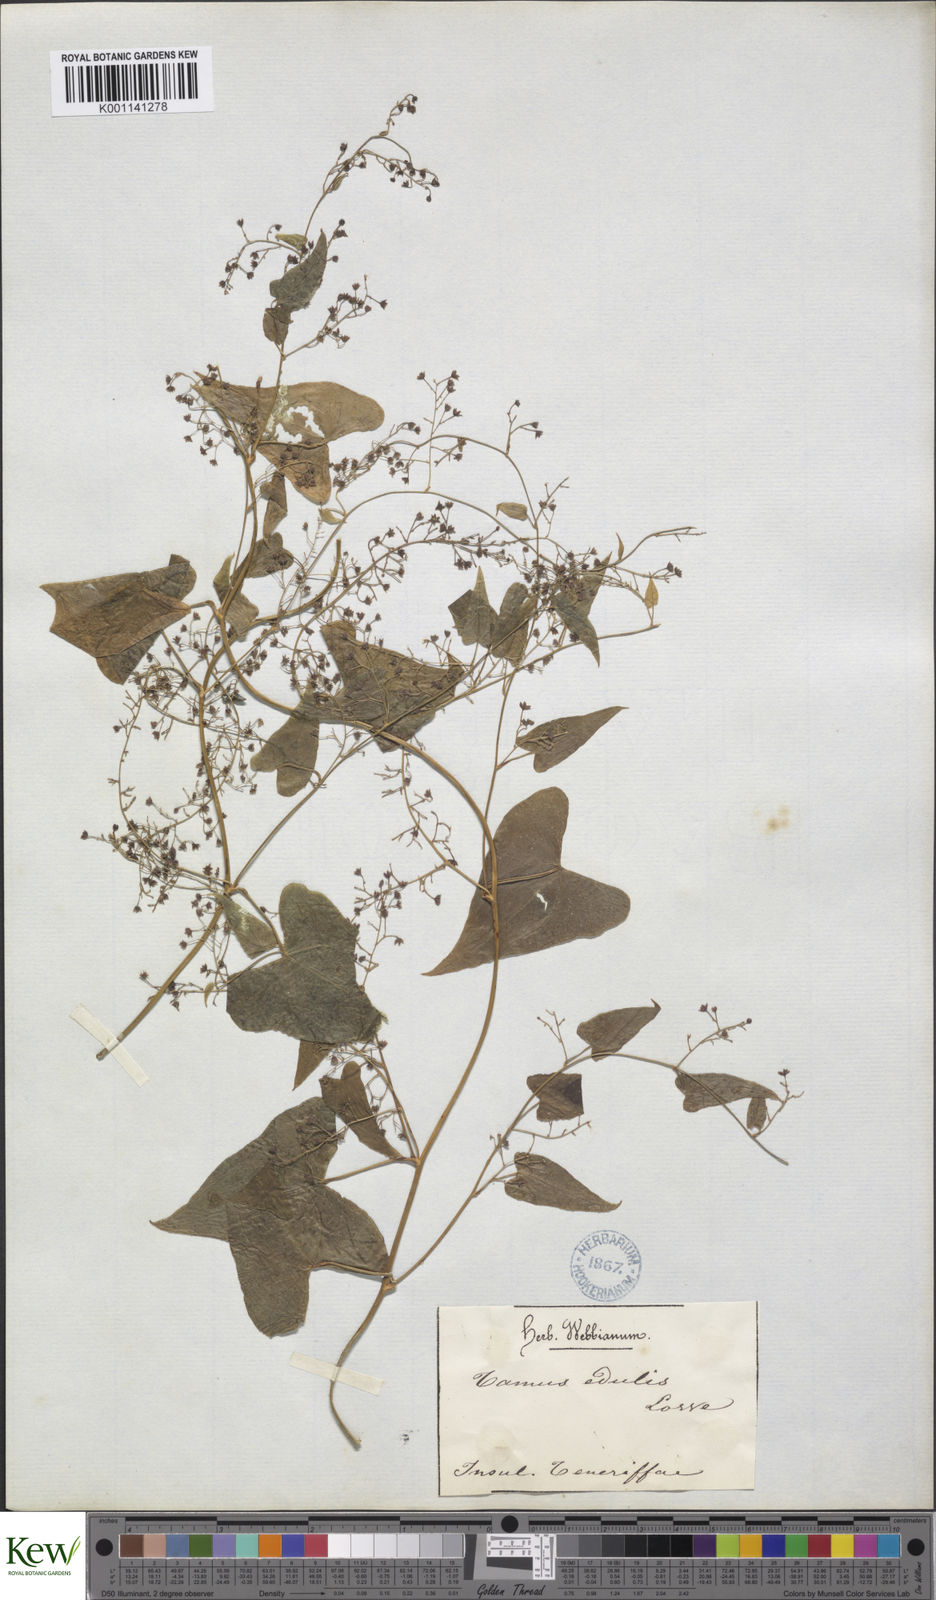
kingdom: Plantae
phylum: Tracheophyta
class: Liliopsida
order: Dioscoreales
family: Dioscoreaceae
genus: Dioscorea
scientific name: Dioscorea
